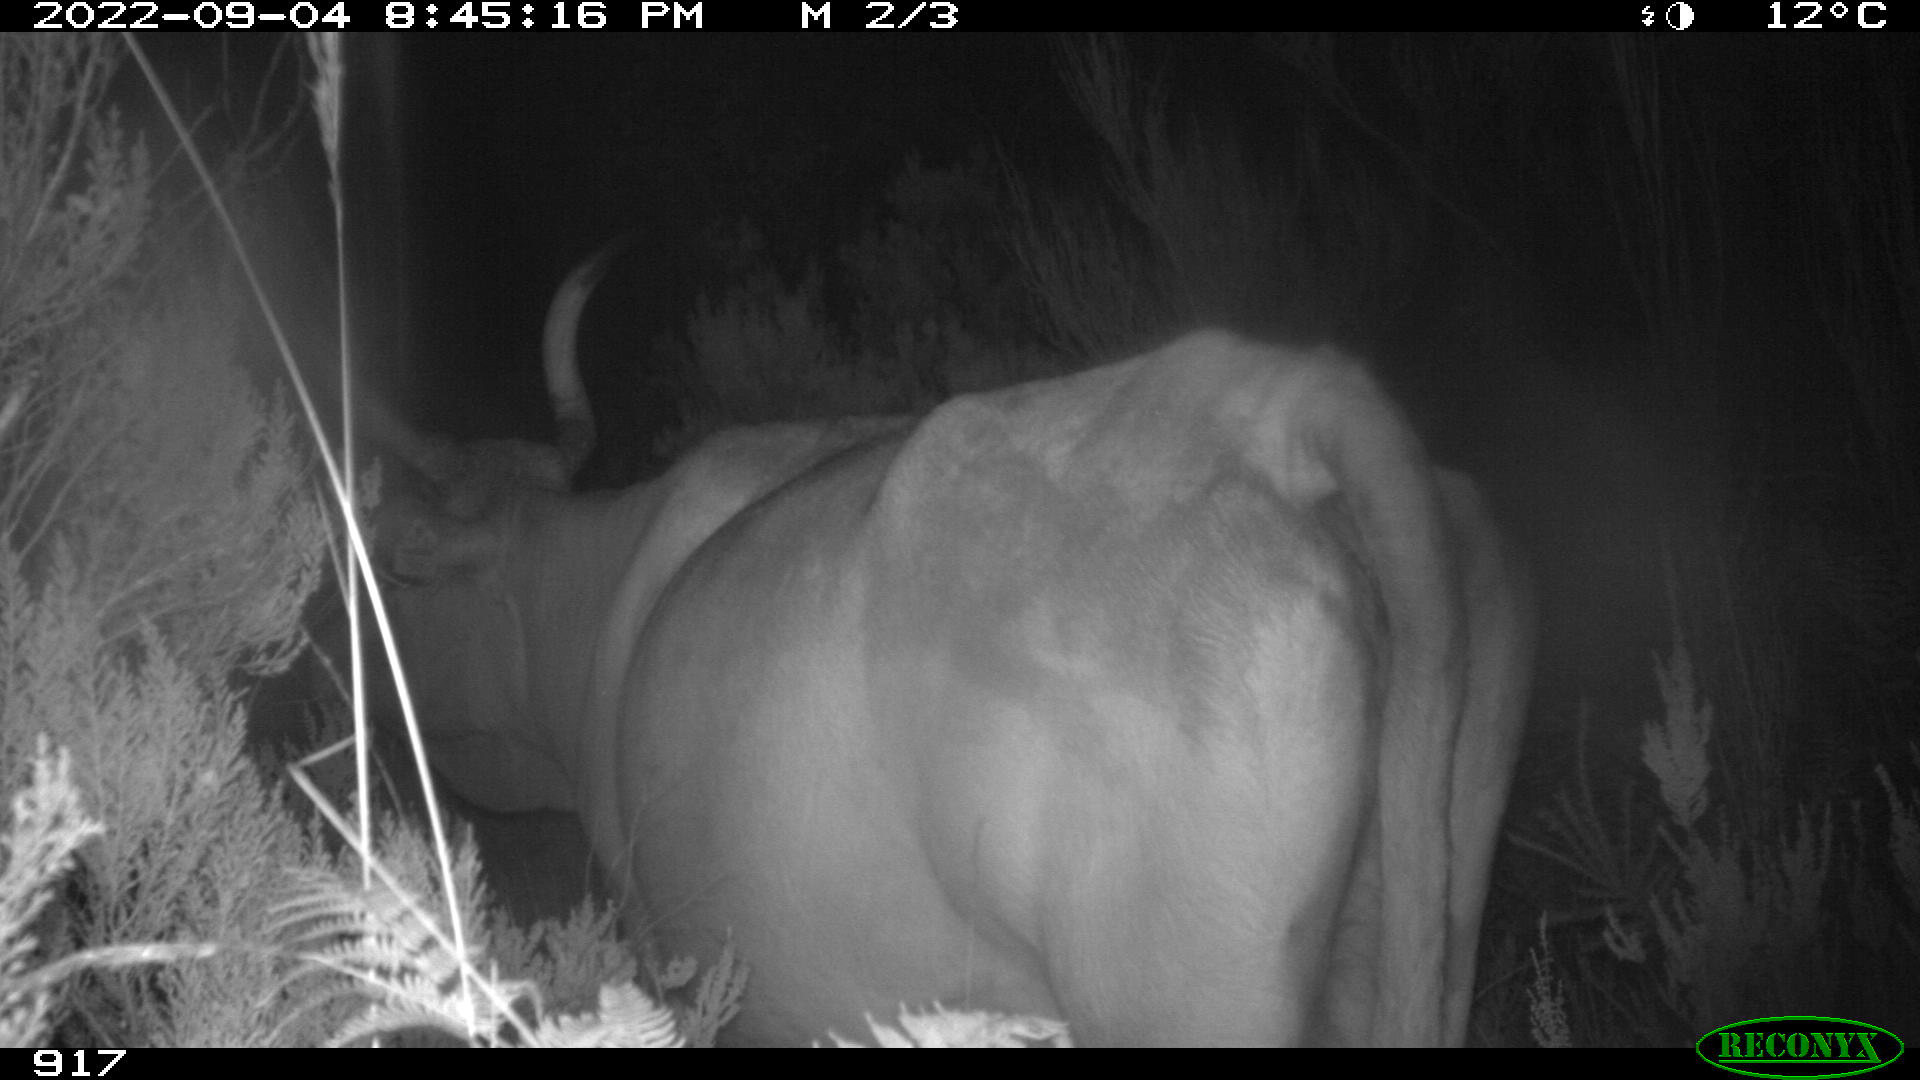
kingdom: Animalia
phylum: Chordata
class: Mammalia
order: Artiodactyla
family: Bovidae
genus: Bos
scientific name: Bos taurus
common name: Domesticated cattle
